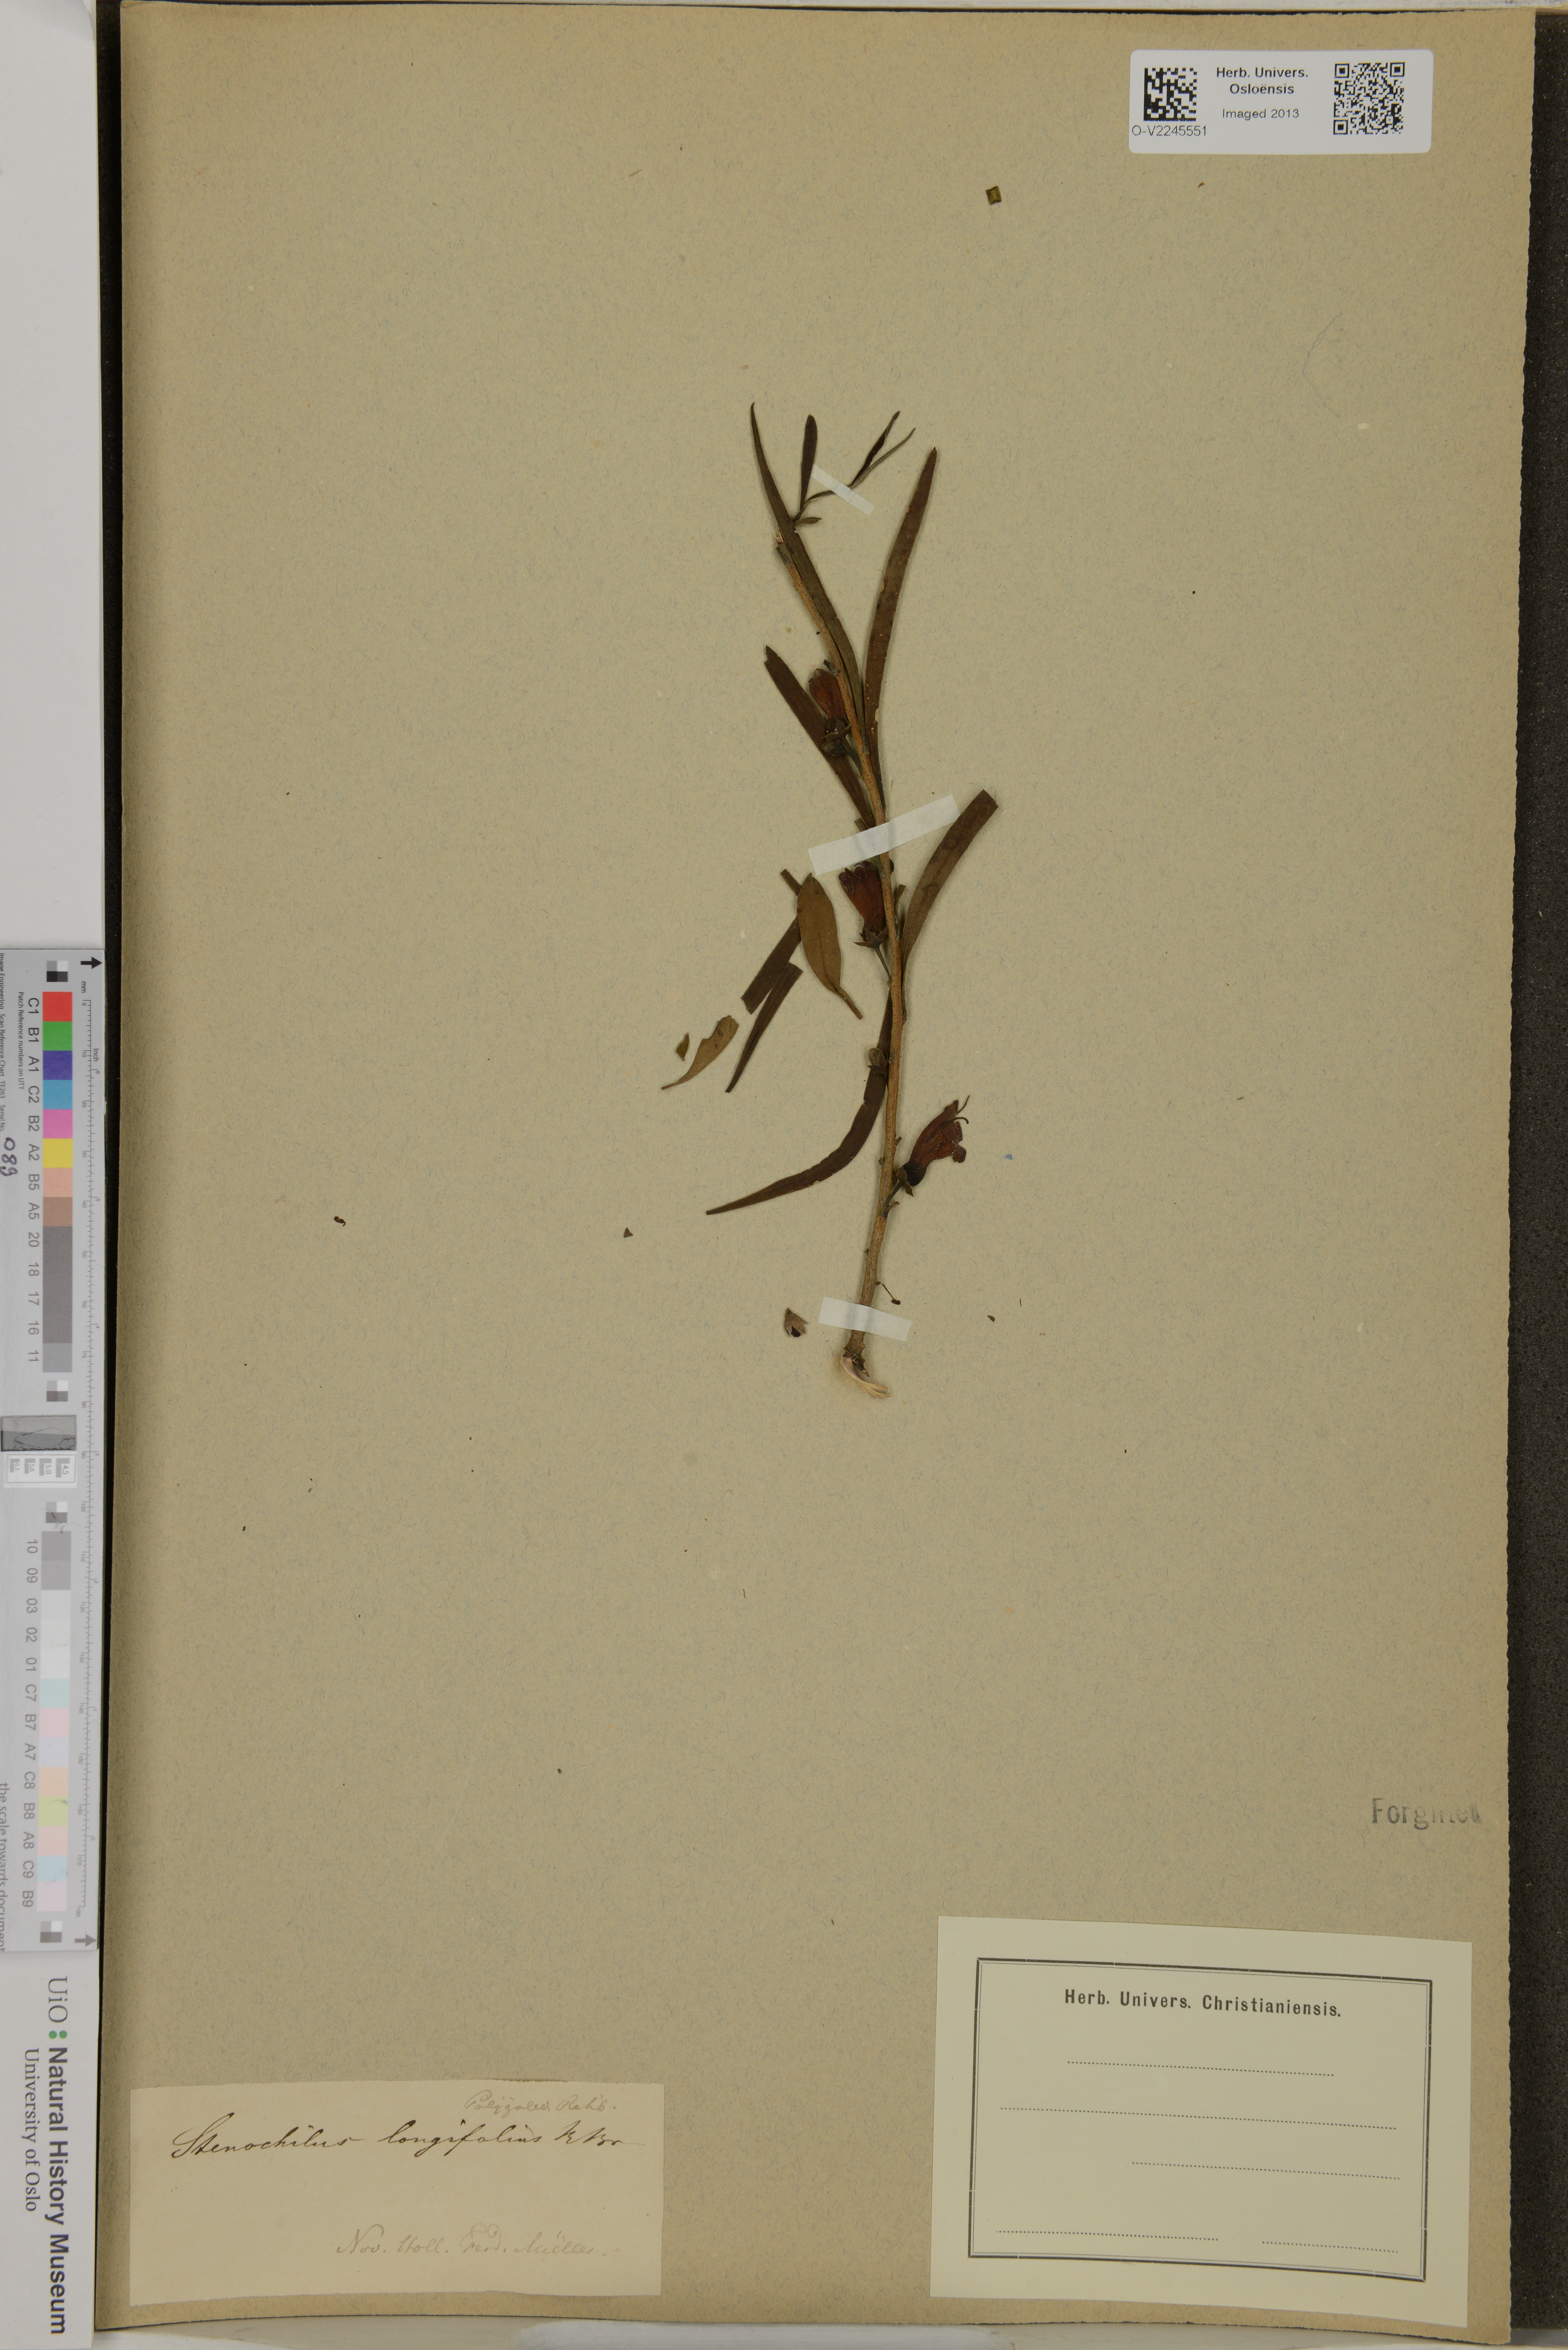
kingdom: Plantae
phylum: Tracheophyta
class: Magnoliopsida
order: Lamiales
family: Scrophulariaceae
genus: Eremophila
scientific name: Eremophila longifolia
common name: Longleaf emubush
